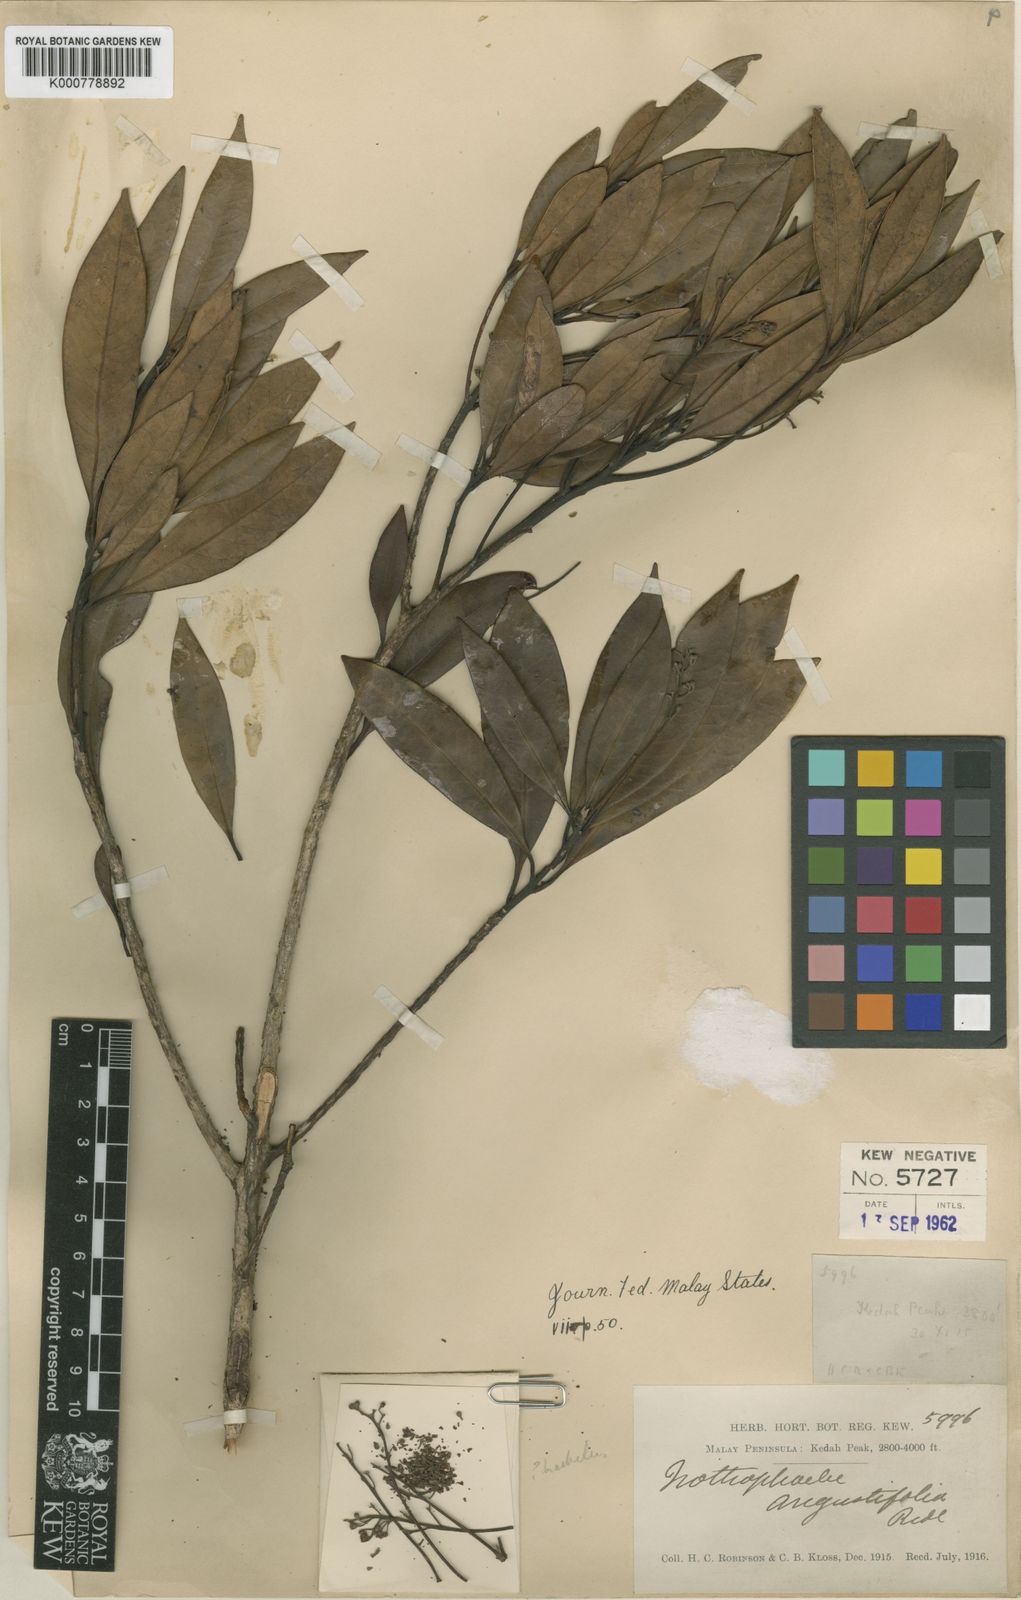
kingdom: Plantae
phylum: Tracheophyta
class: Magnoliopsida
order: Laurales
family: Lauraceae
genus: Nothaphoebe
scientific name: Nothaphoebe
